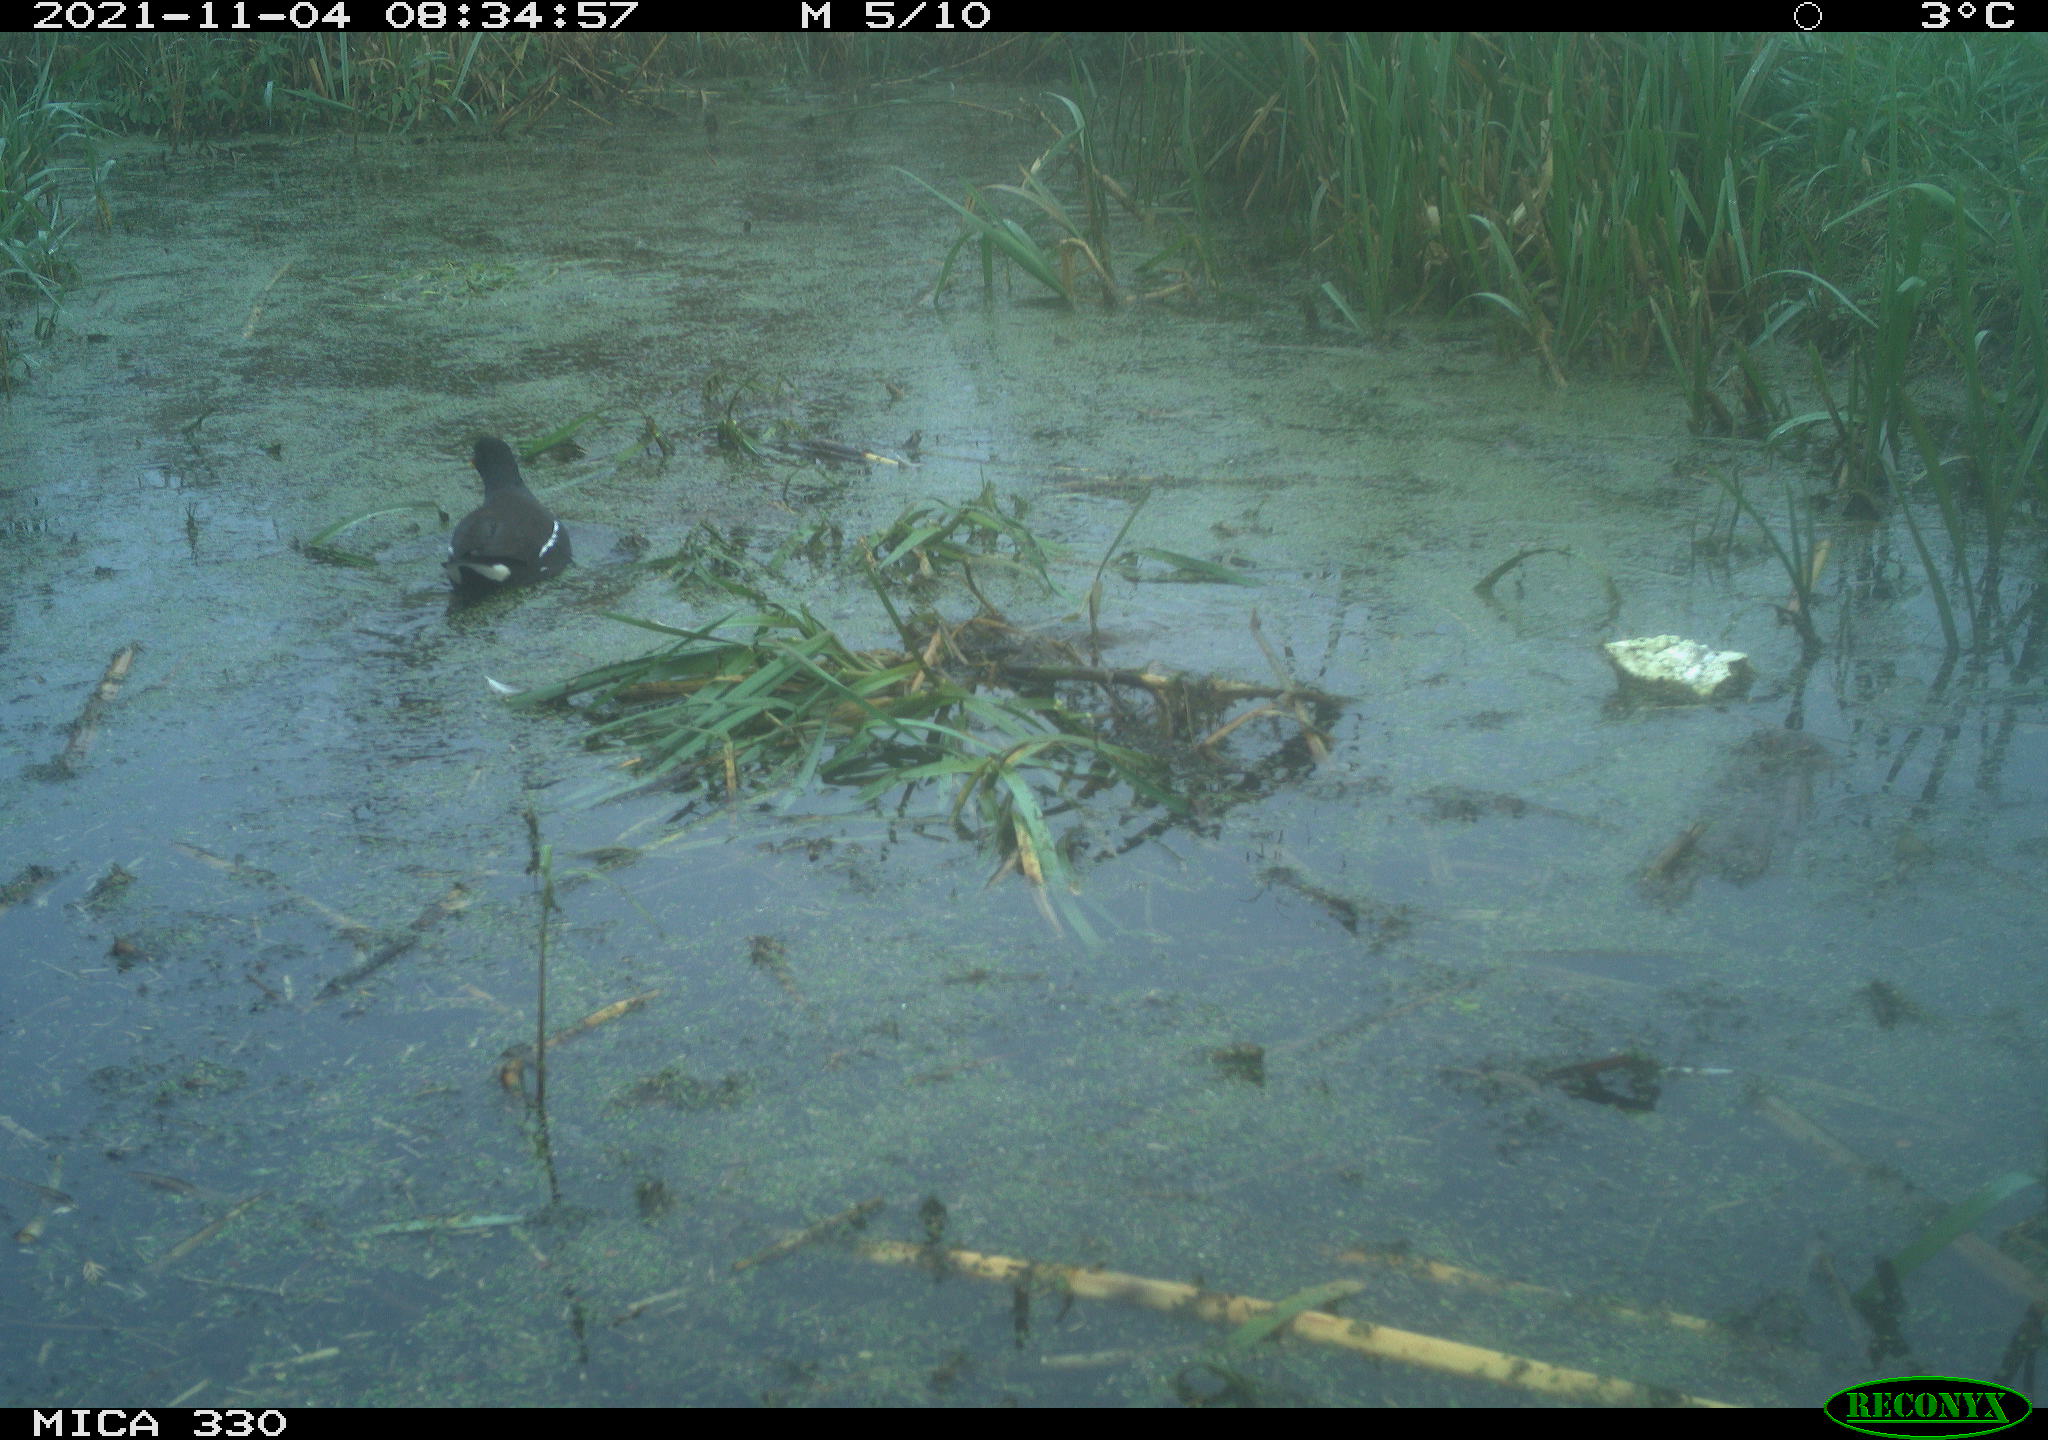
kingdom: Animalia
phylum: Chordata
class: Aves
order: Gruiformes
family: Rallidae
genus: Gallinula
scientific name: Gallinula chloropus
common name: Common moorhen
